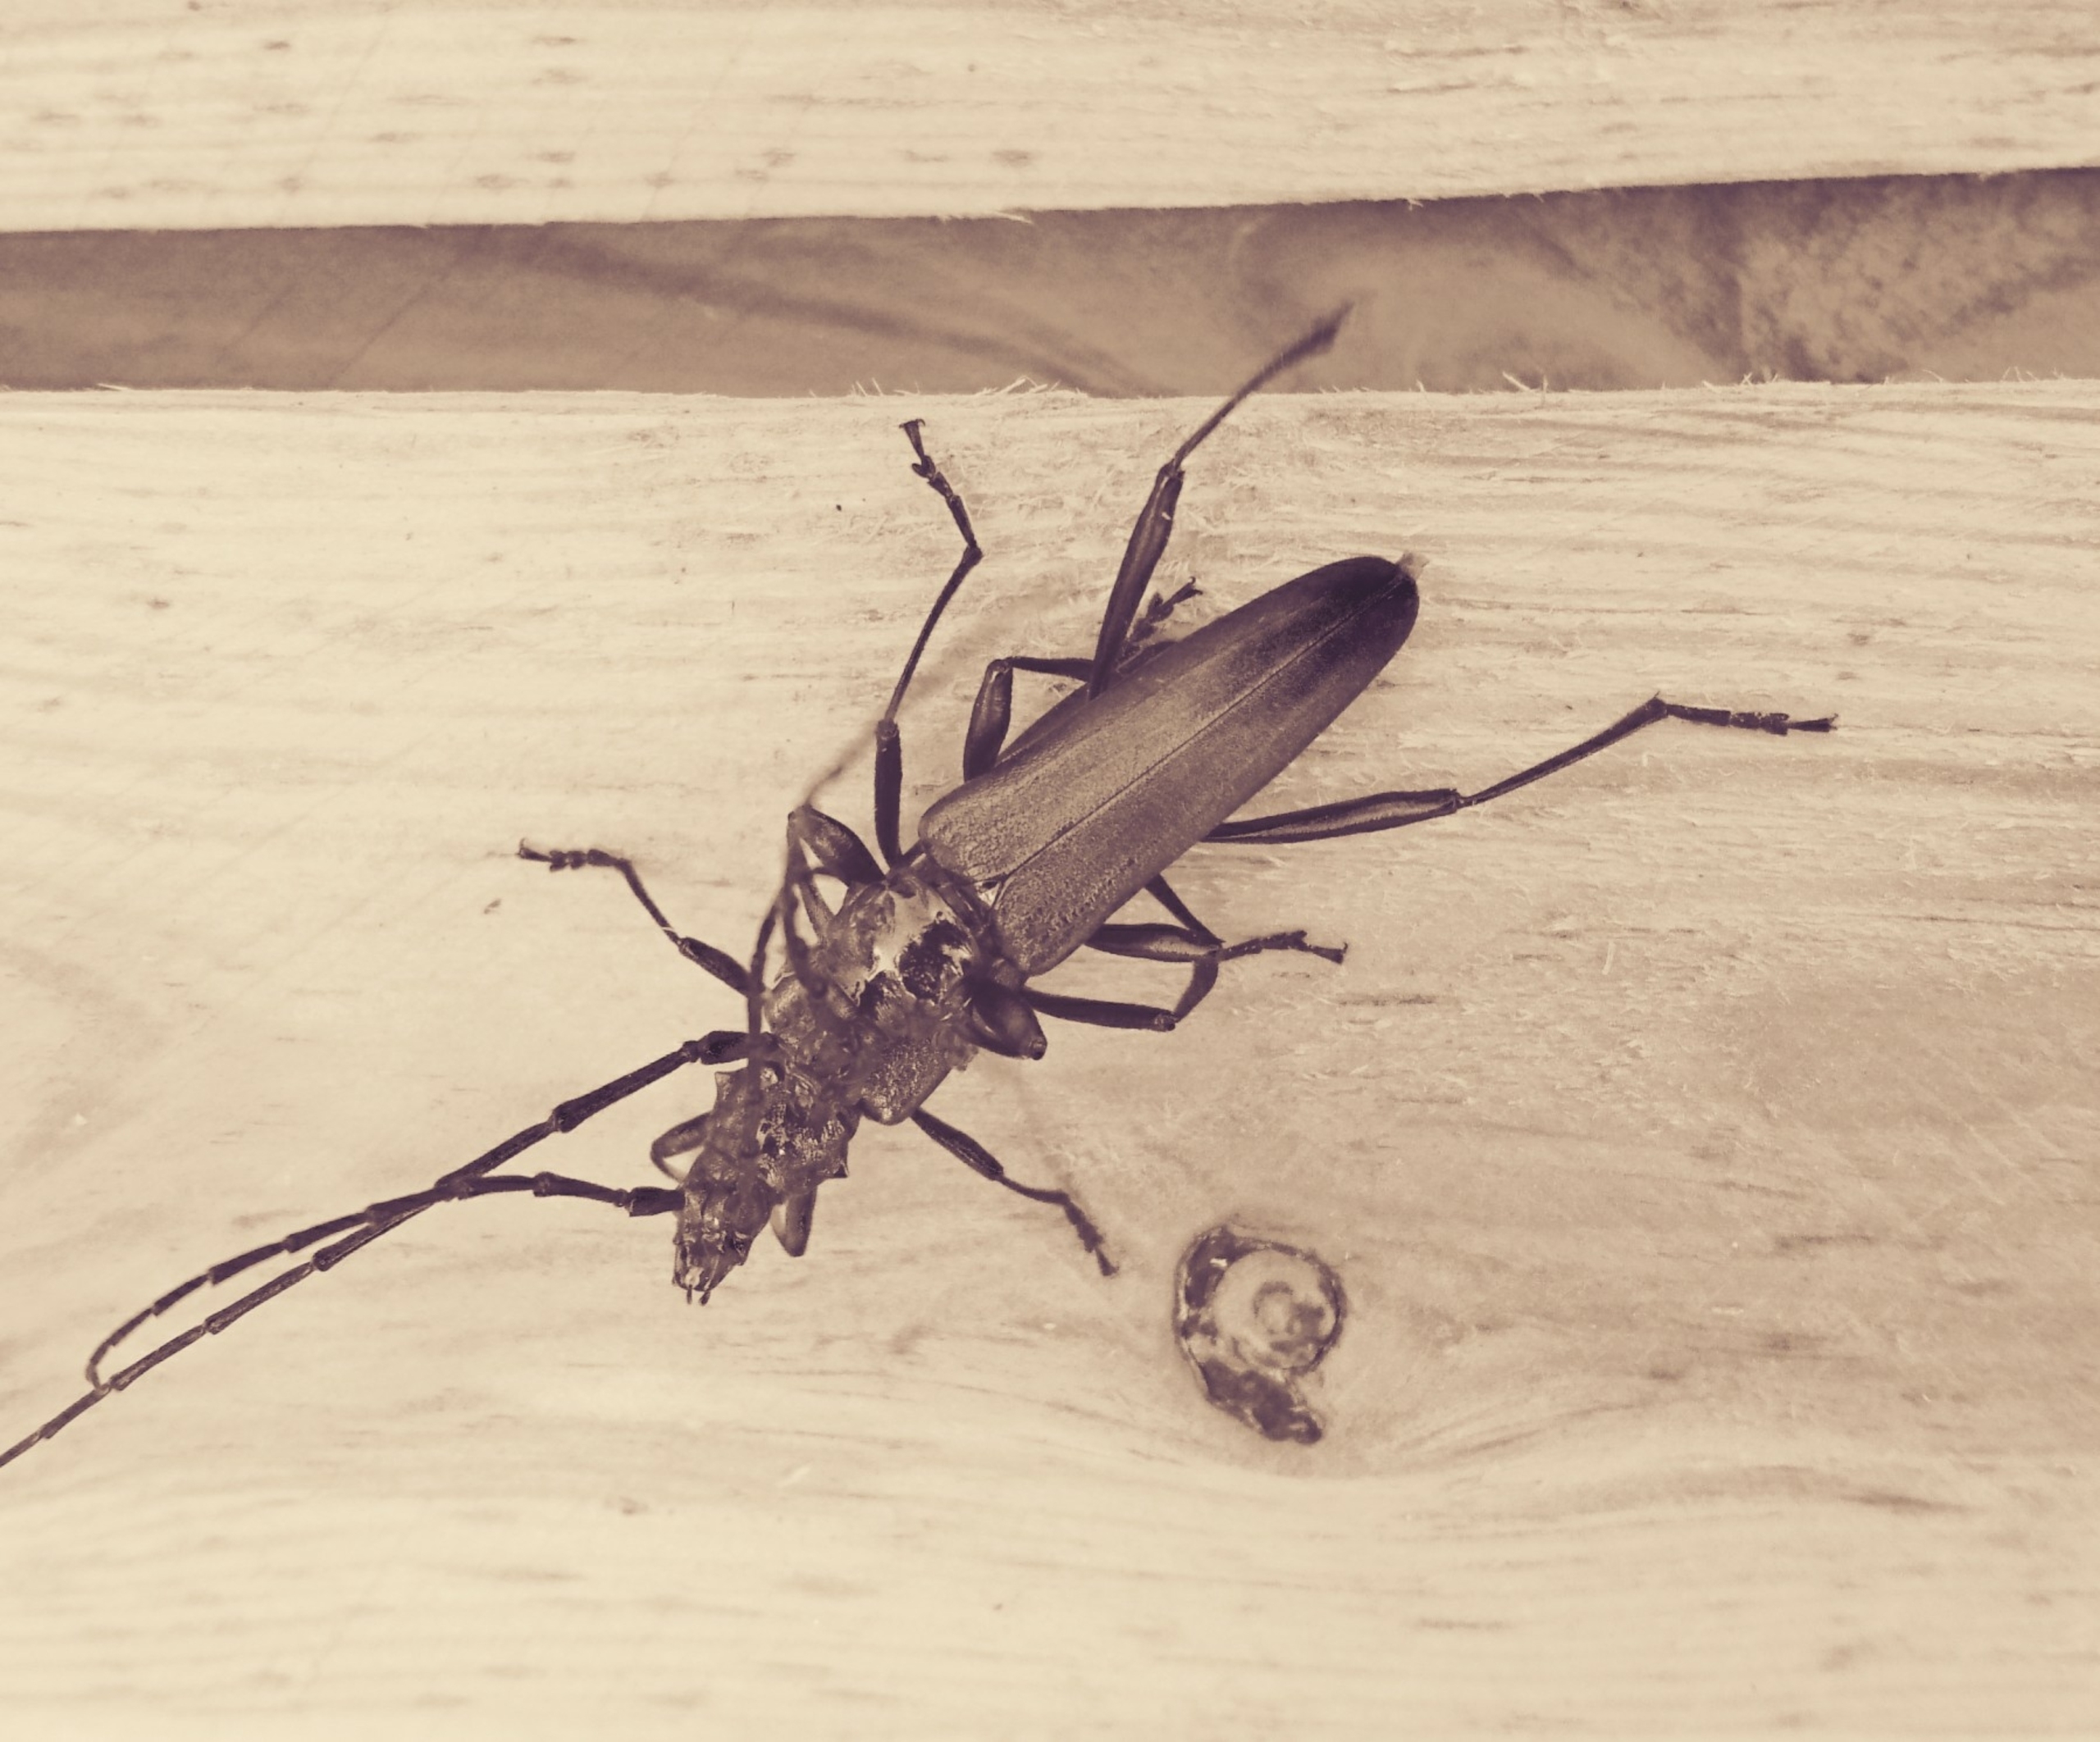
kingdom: Animalia
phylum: Arthropoda
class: Insecta
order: Coleoptera
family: Cerambycidae
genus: Aromia
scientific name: Aromia moschata
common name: Moskusbuk
